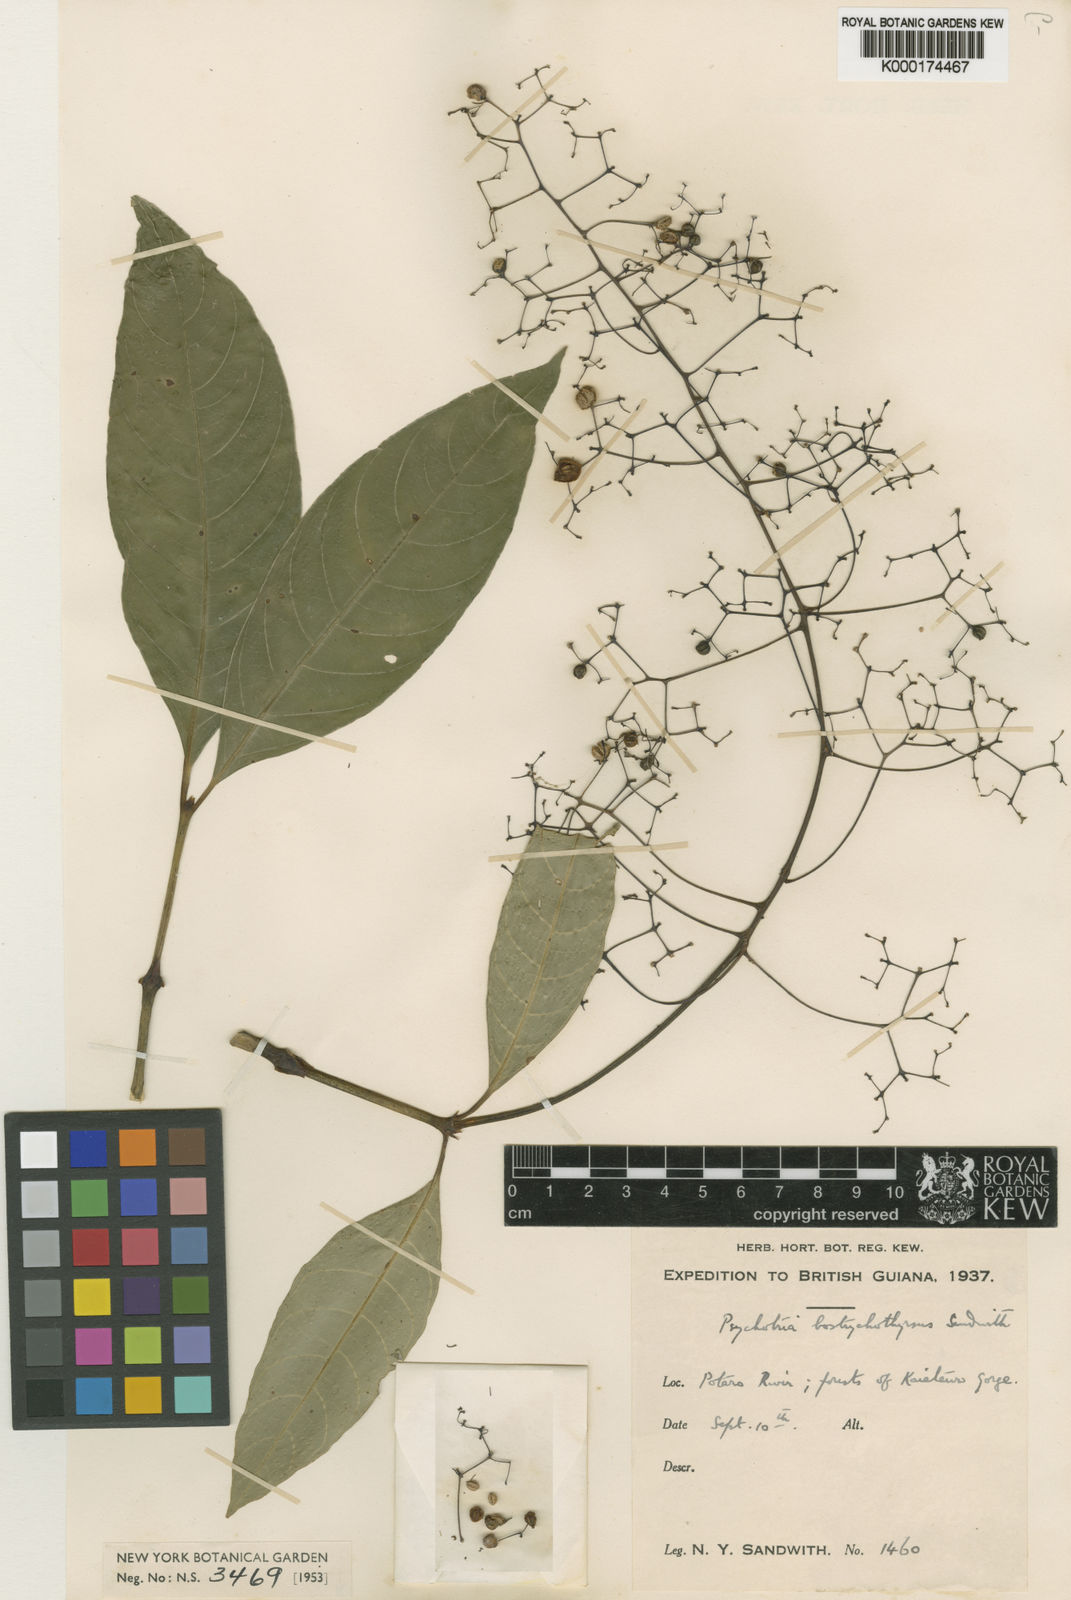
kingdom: Plantae
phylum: Tracheophyta
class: Magnoliopsida
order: Gentianales
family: Rubiaceae
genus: Palicourea
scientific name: Palicourea bostrychothyrsus
